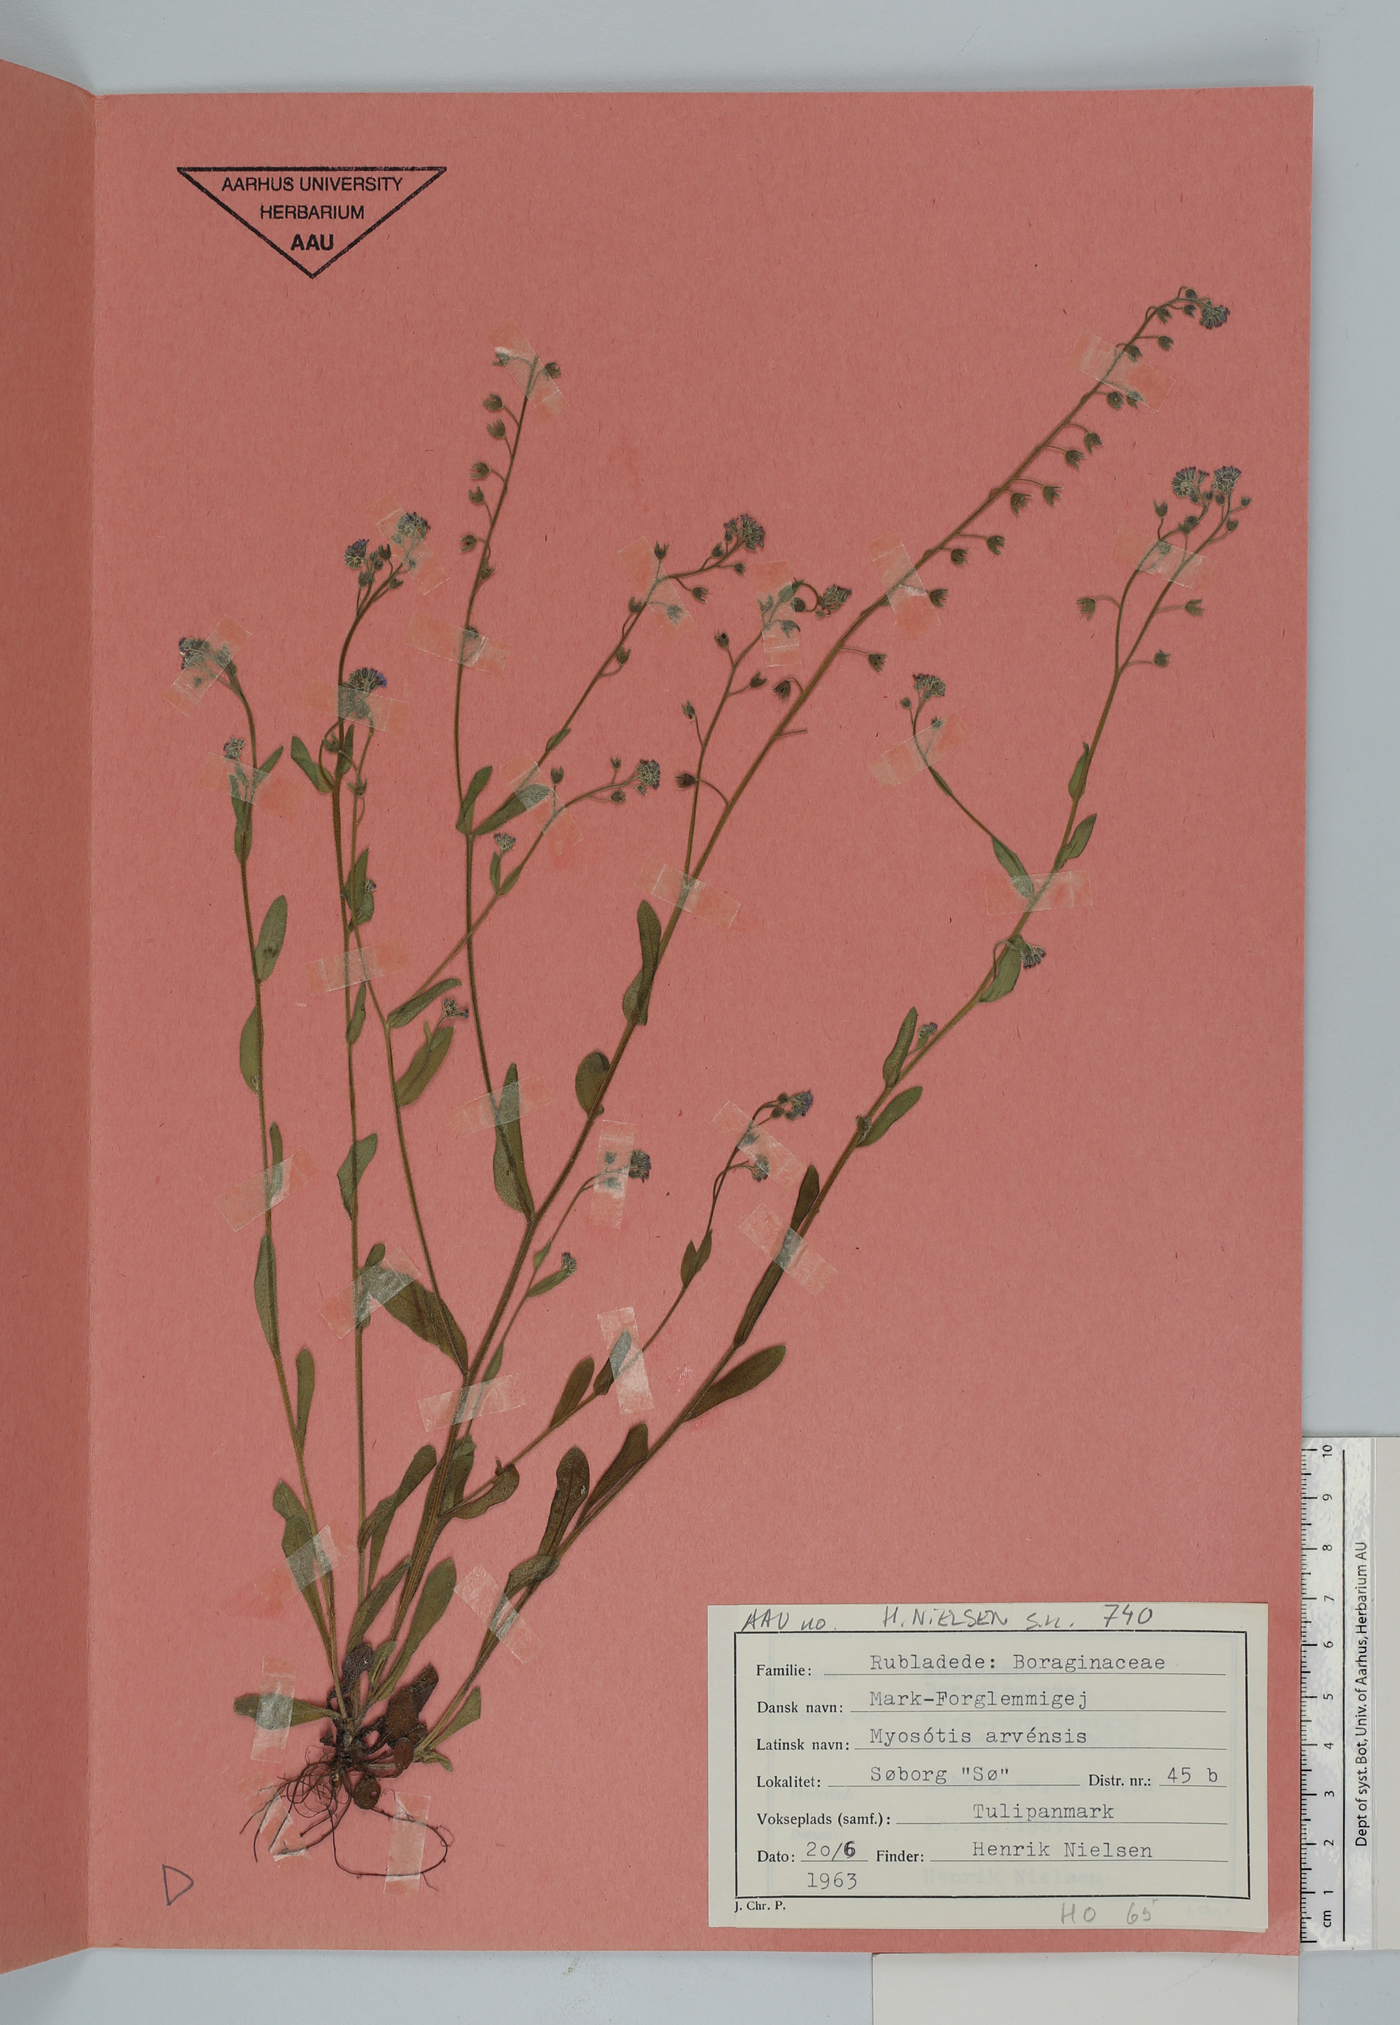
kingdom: Plantae
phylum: Tracheophyta
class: Magnoliopsida
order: Boraginales
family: Boraginaceae
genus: Myosotis
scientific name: Myosotis arvensis
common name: Field forget-me-not
